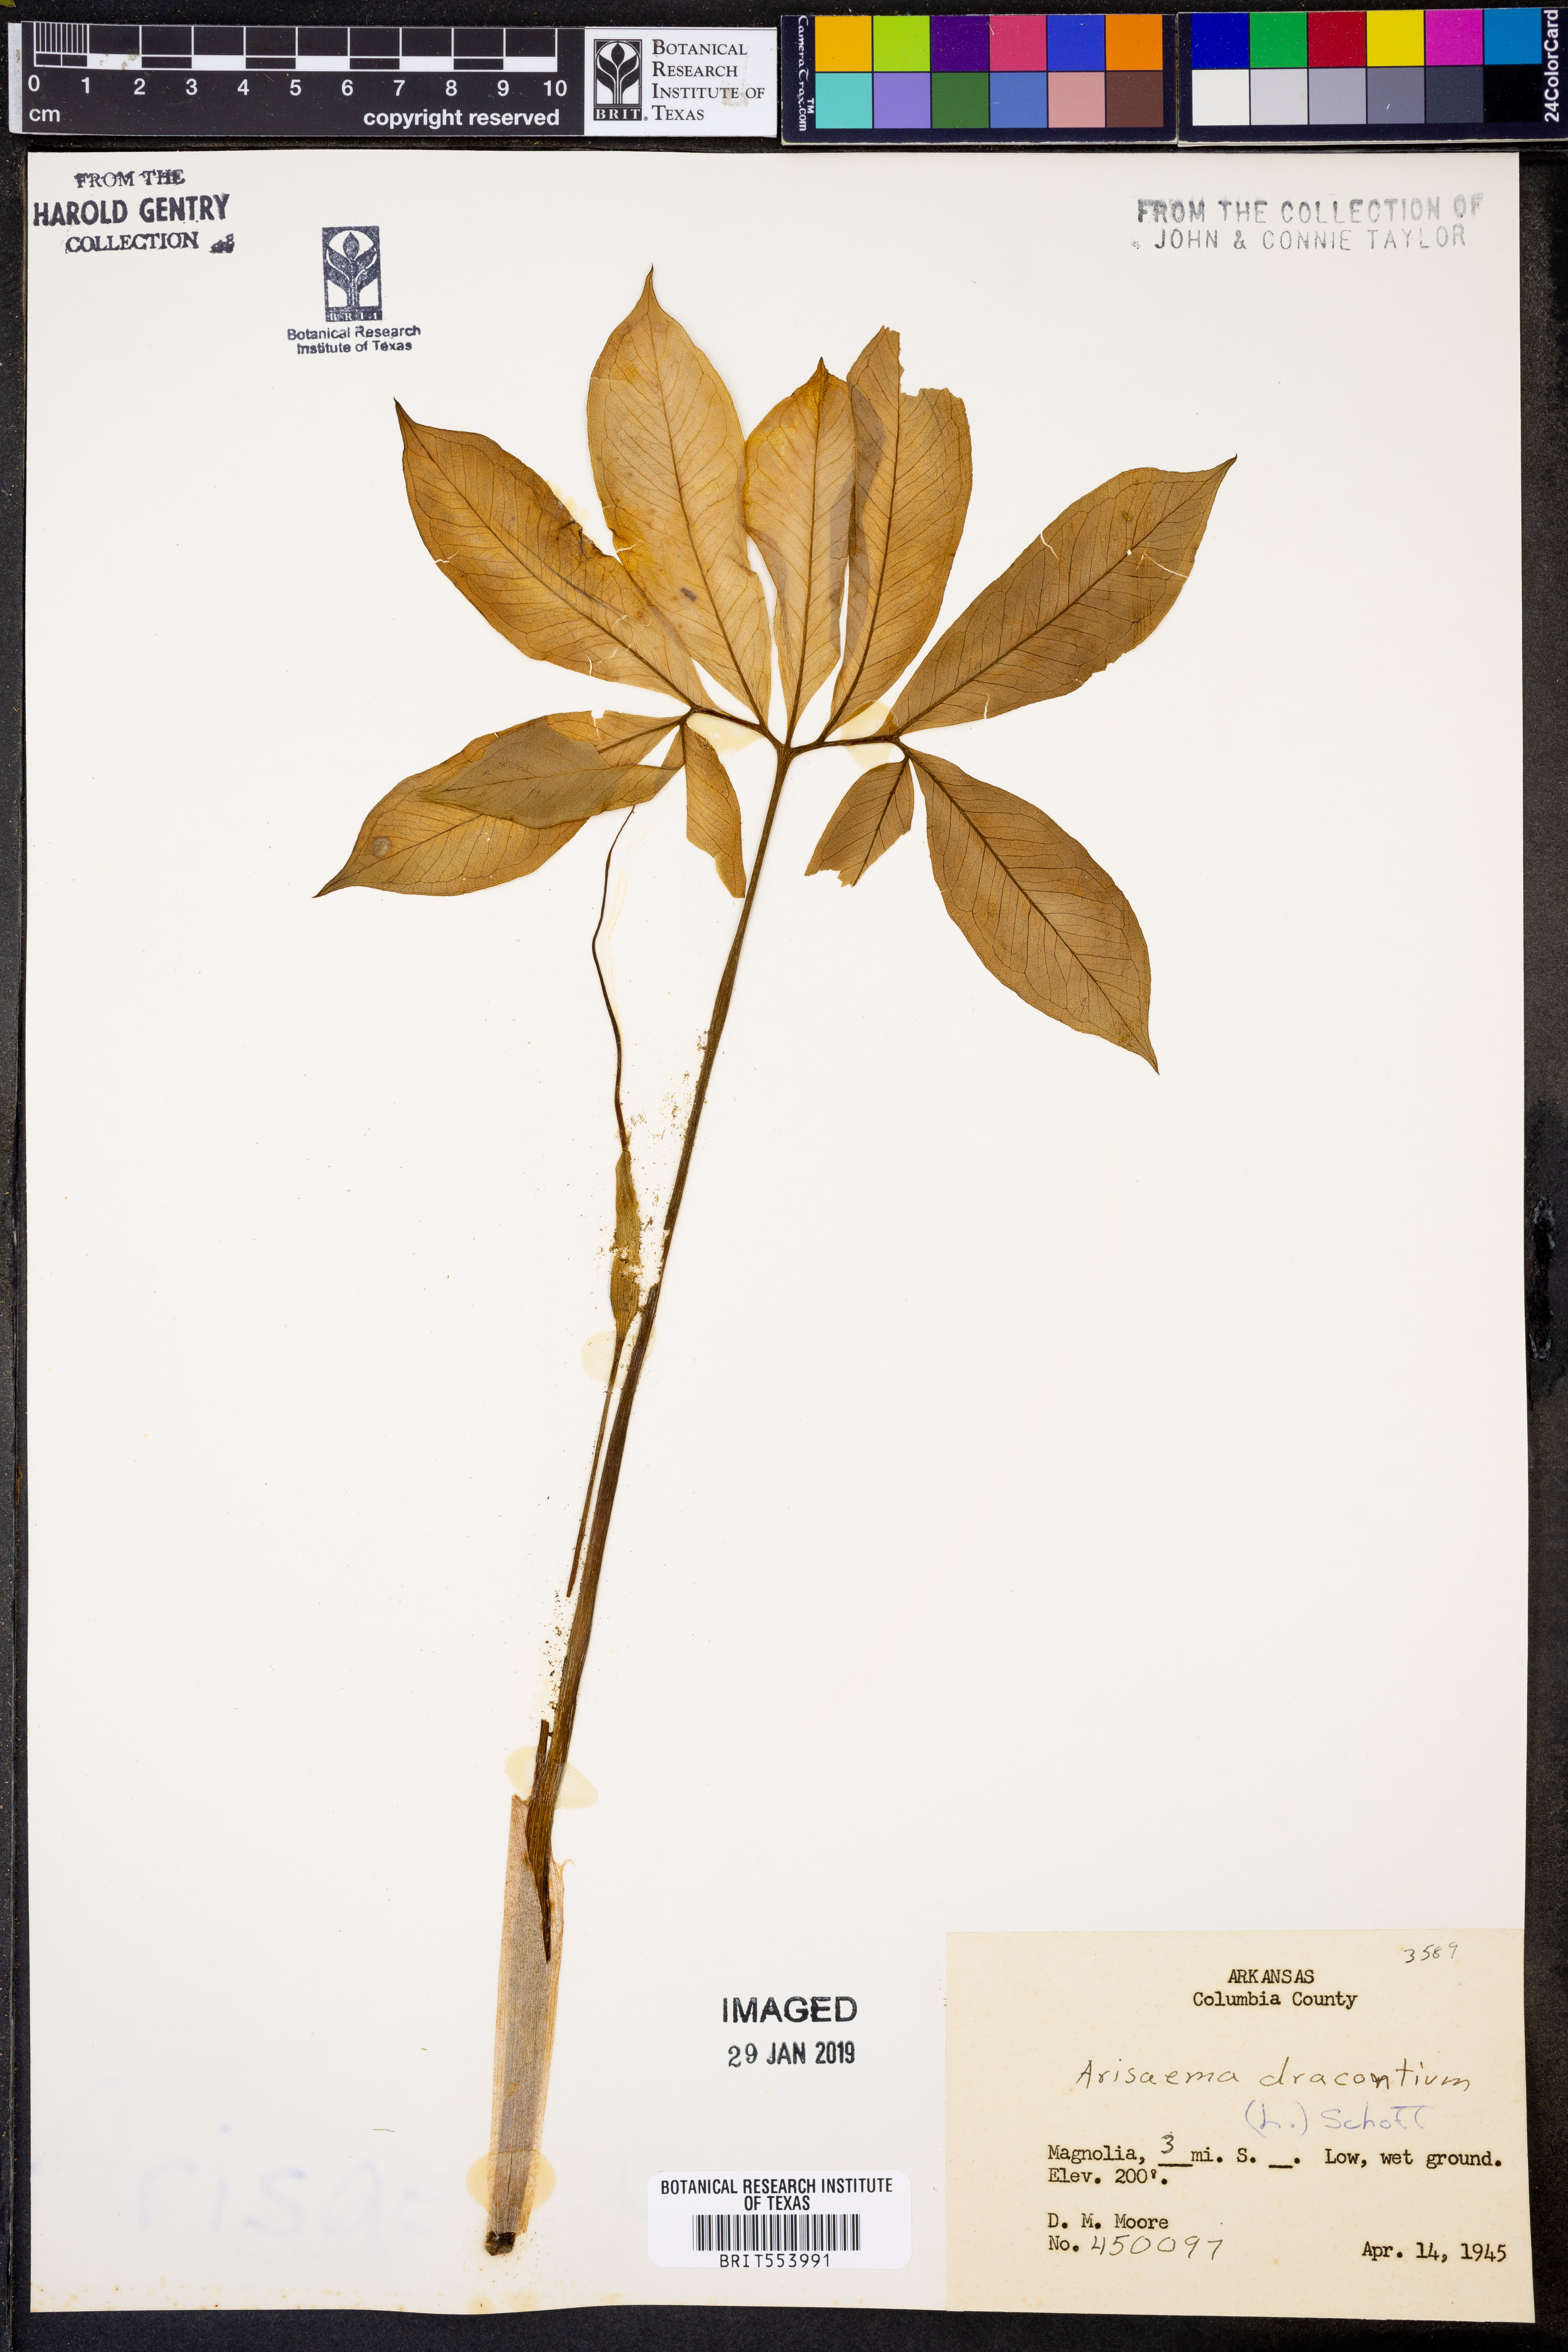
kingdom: Plantae
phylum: Tracheophyta
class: Liliopsida
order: Alismatales
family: Araceae
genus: Arisaema
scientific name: Arisaema dracontium
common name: Dragon-arum
